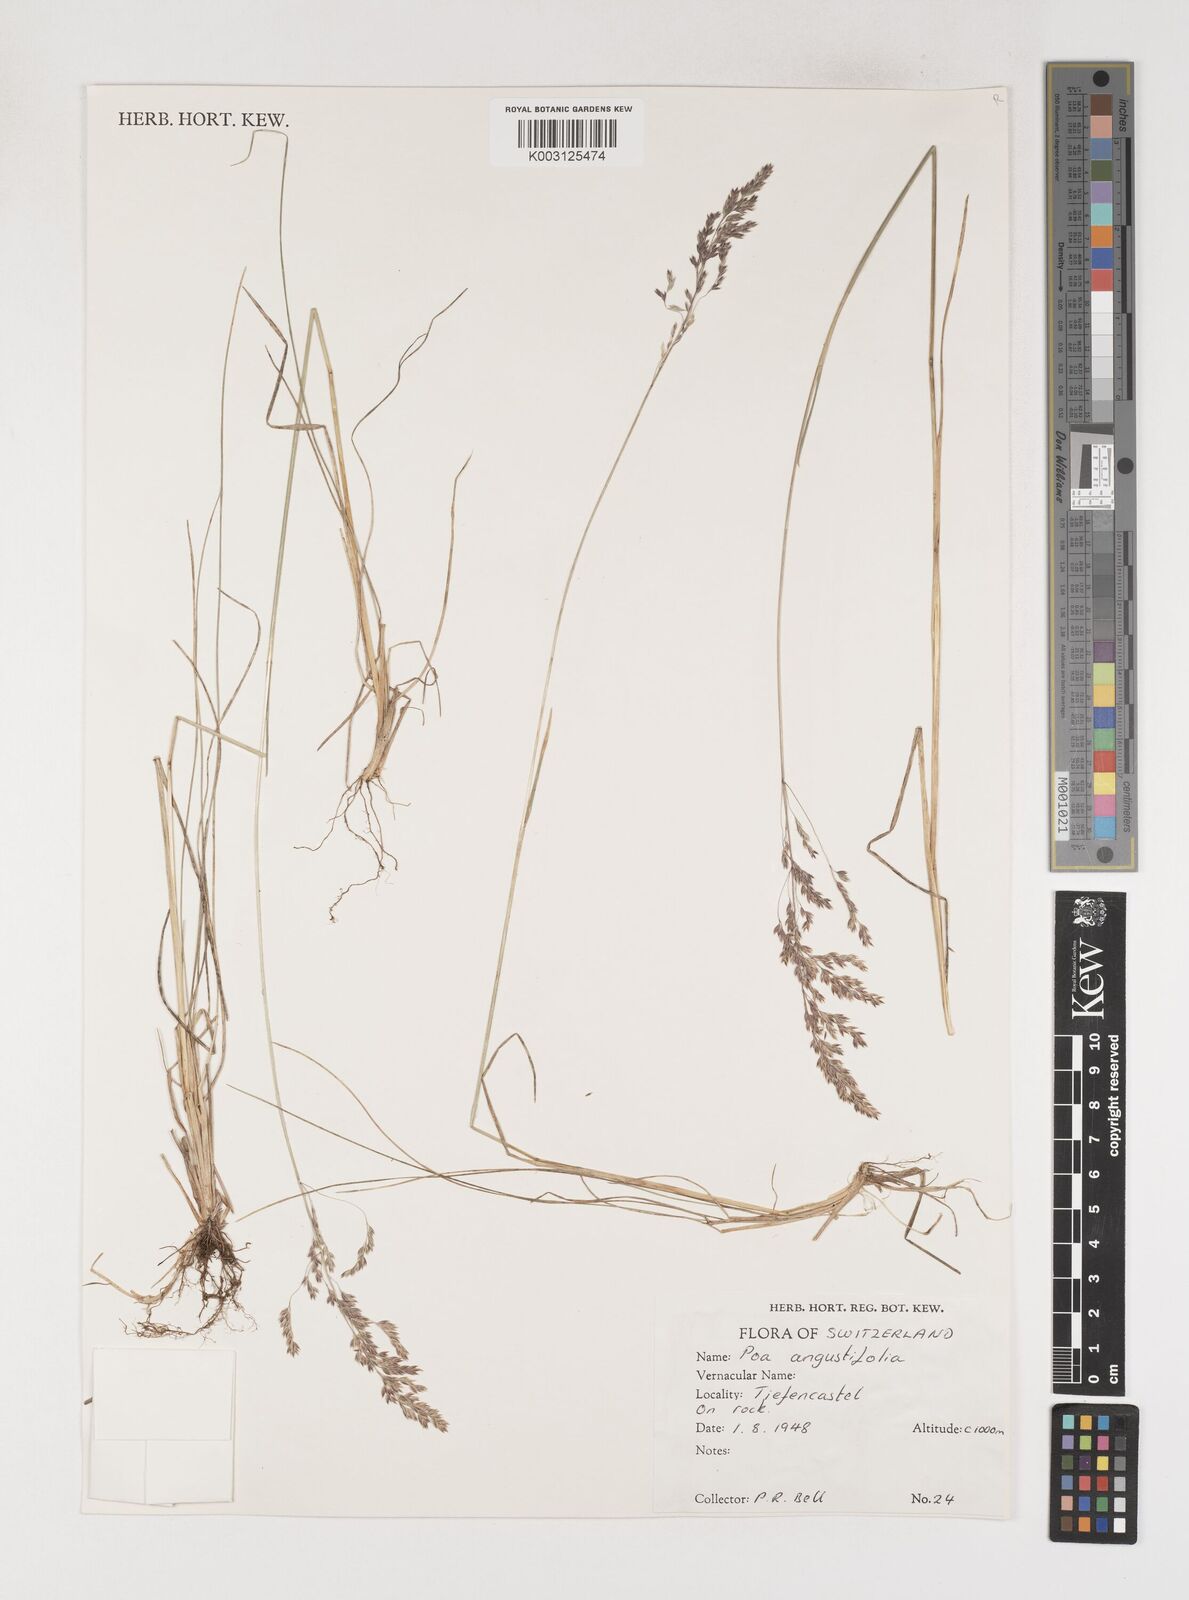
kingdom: Plantae
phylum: Tracheophyta
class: Liliopsida
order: Poales
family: Poaceae
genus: Poa
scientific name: Poa angustifolia
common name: Narrow-leaved meadow-grass
